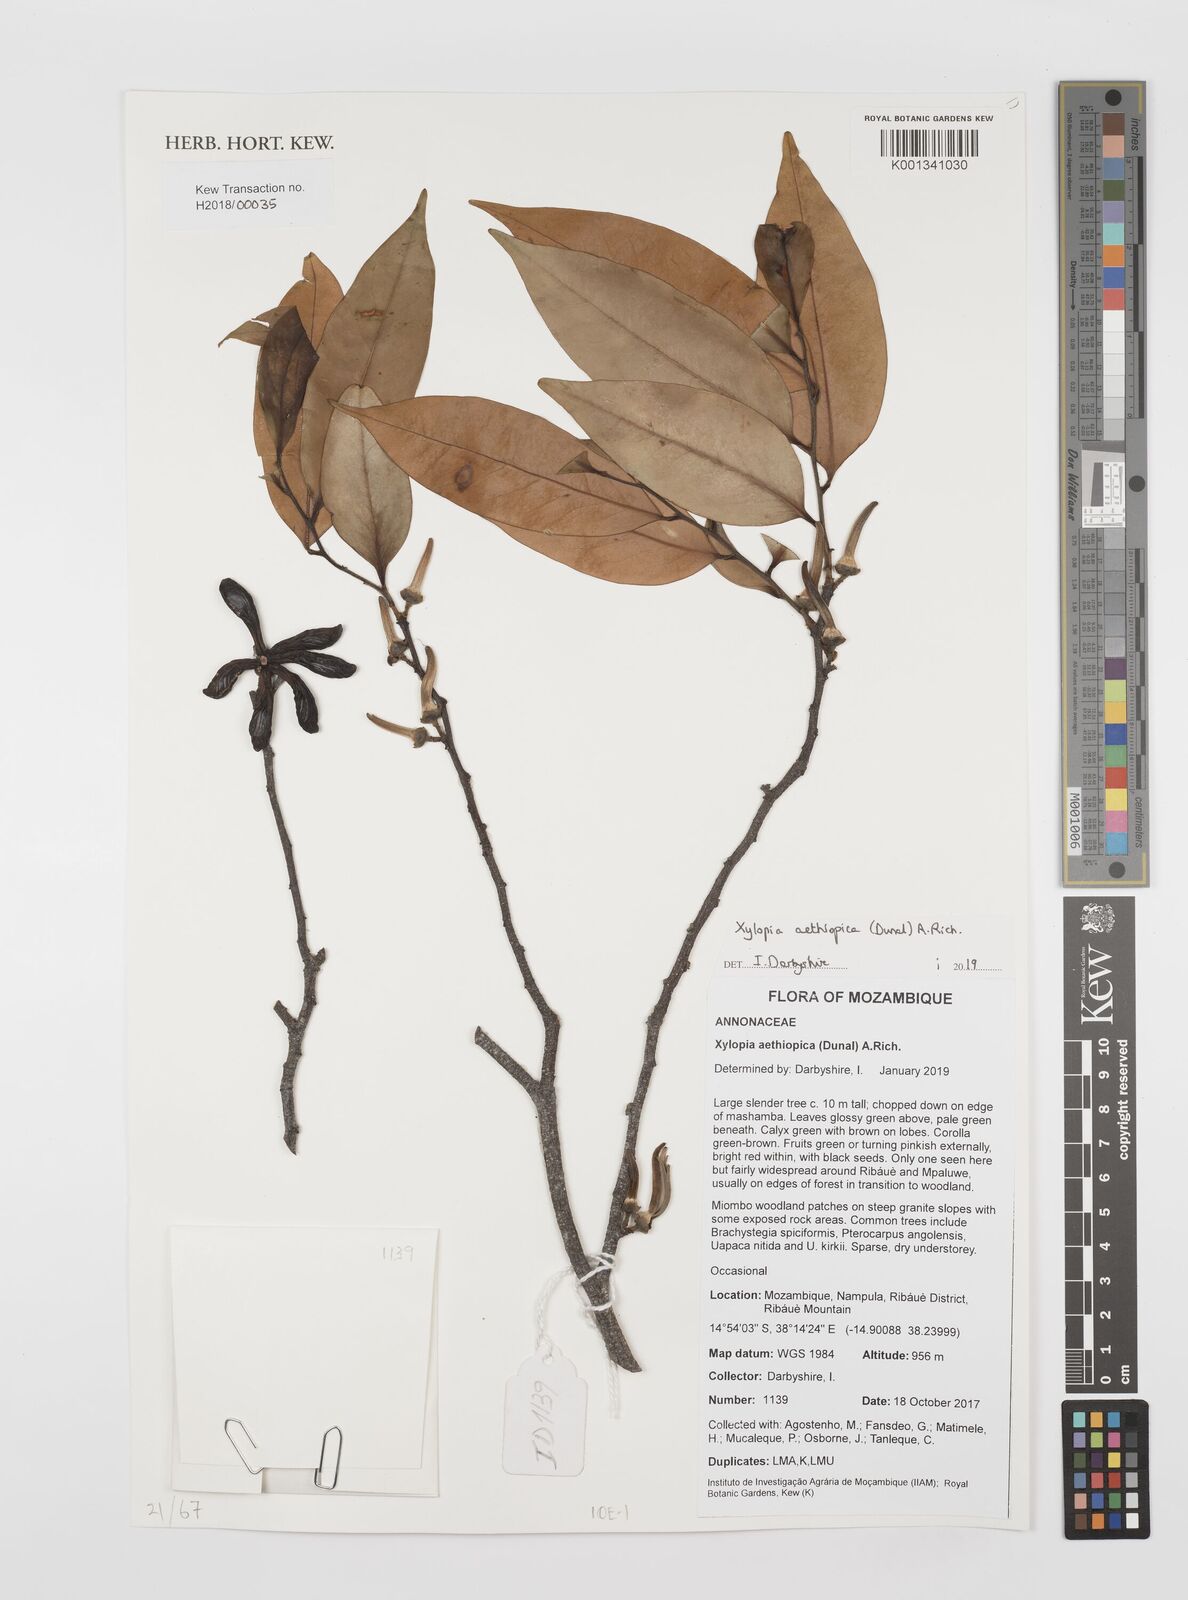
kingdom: Plantae
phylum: Tracheophyta
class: Magnoliopsida
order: Magnoliales
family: Annonaceae
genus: Xylopia
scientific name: Xylopia aethiopica
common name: Ethiopian-pepper
